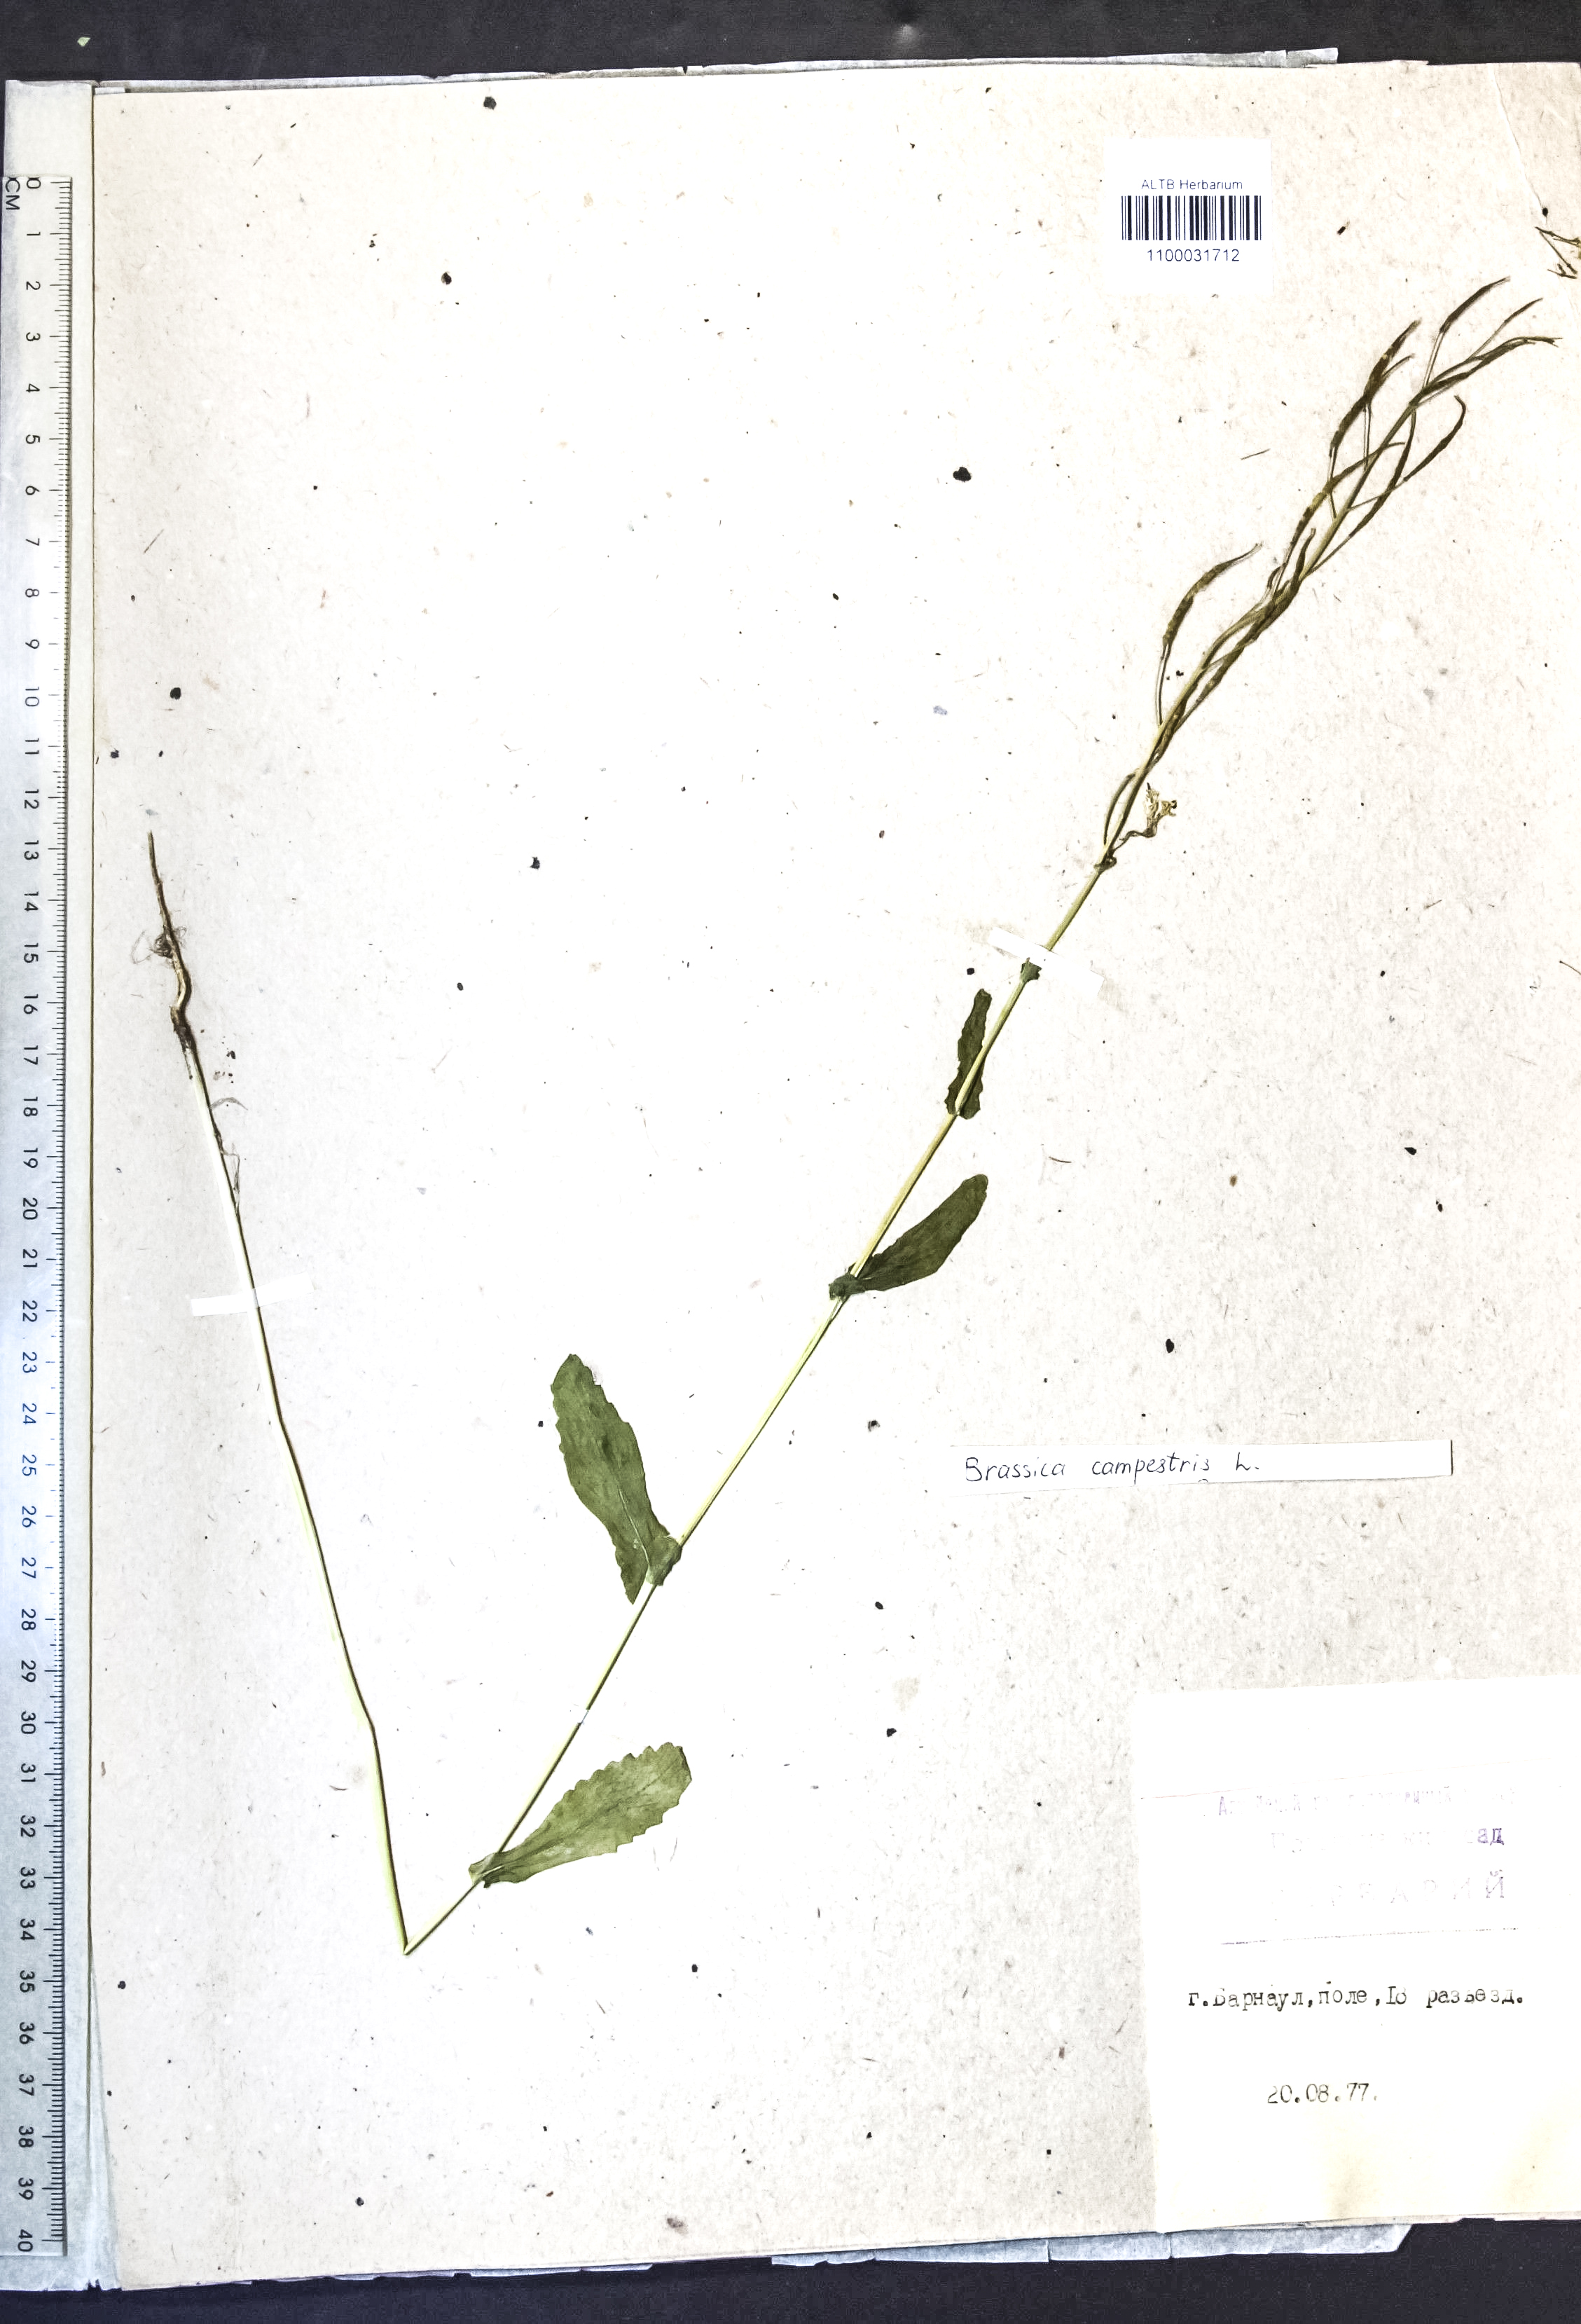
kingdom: Plantae
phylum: Tracheophyta
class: Magnoliopsida
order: Brassicales
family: Brassicaceae
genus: Brassica
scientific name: Brassica rapa
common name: Field mustard
